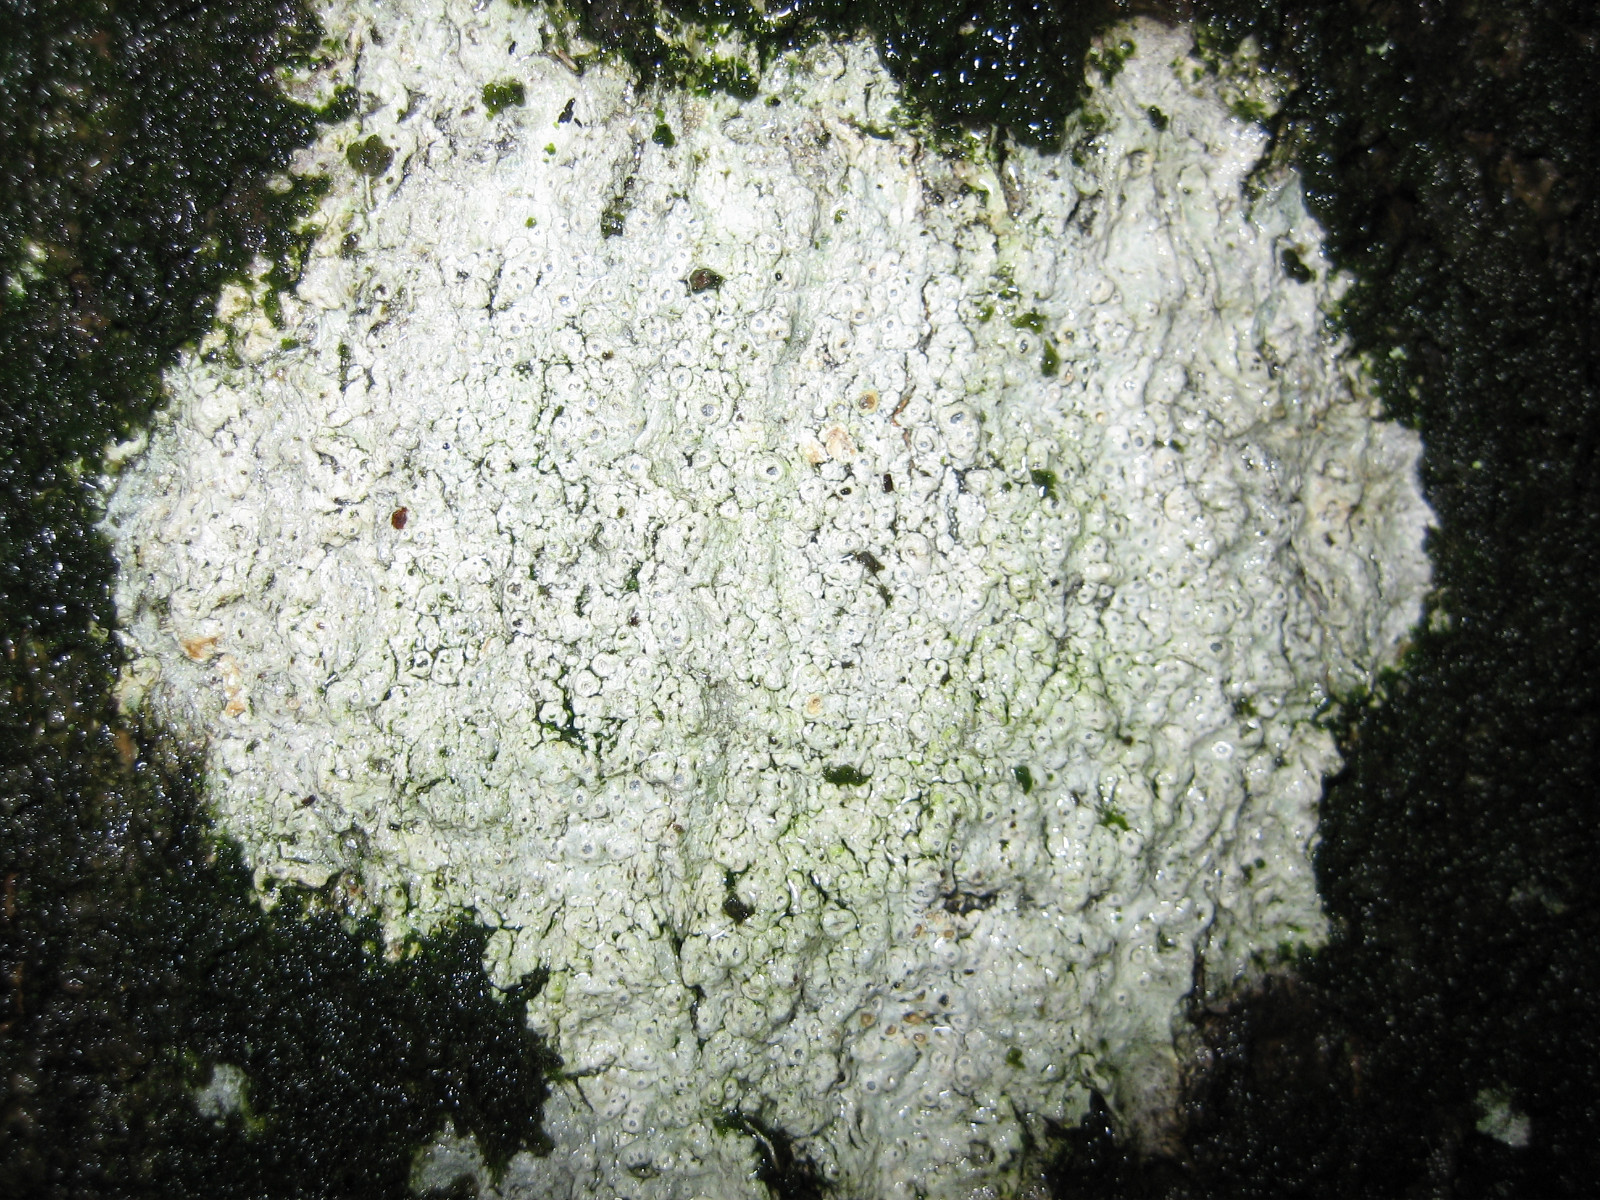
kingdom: Fungi
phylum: Ascomycota
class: Lecanoromycetes
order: Ostropales
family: Graphidaceae
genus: Thelotrema
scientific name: Thelotrema lepadinum
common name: almindelig slørkantlav
